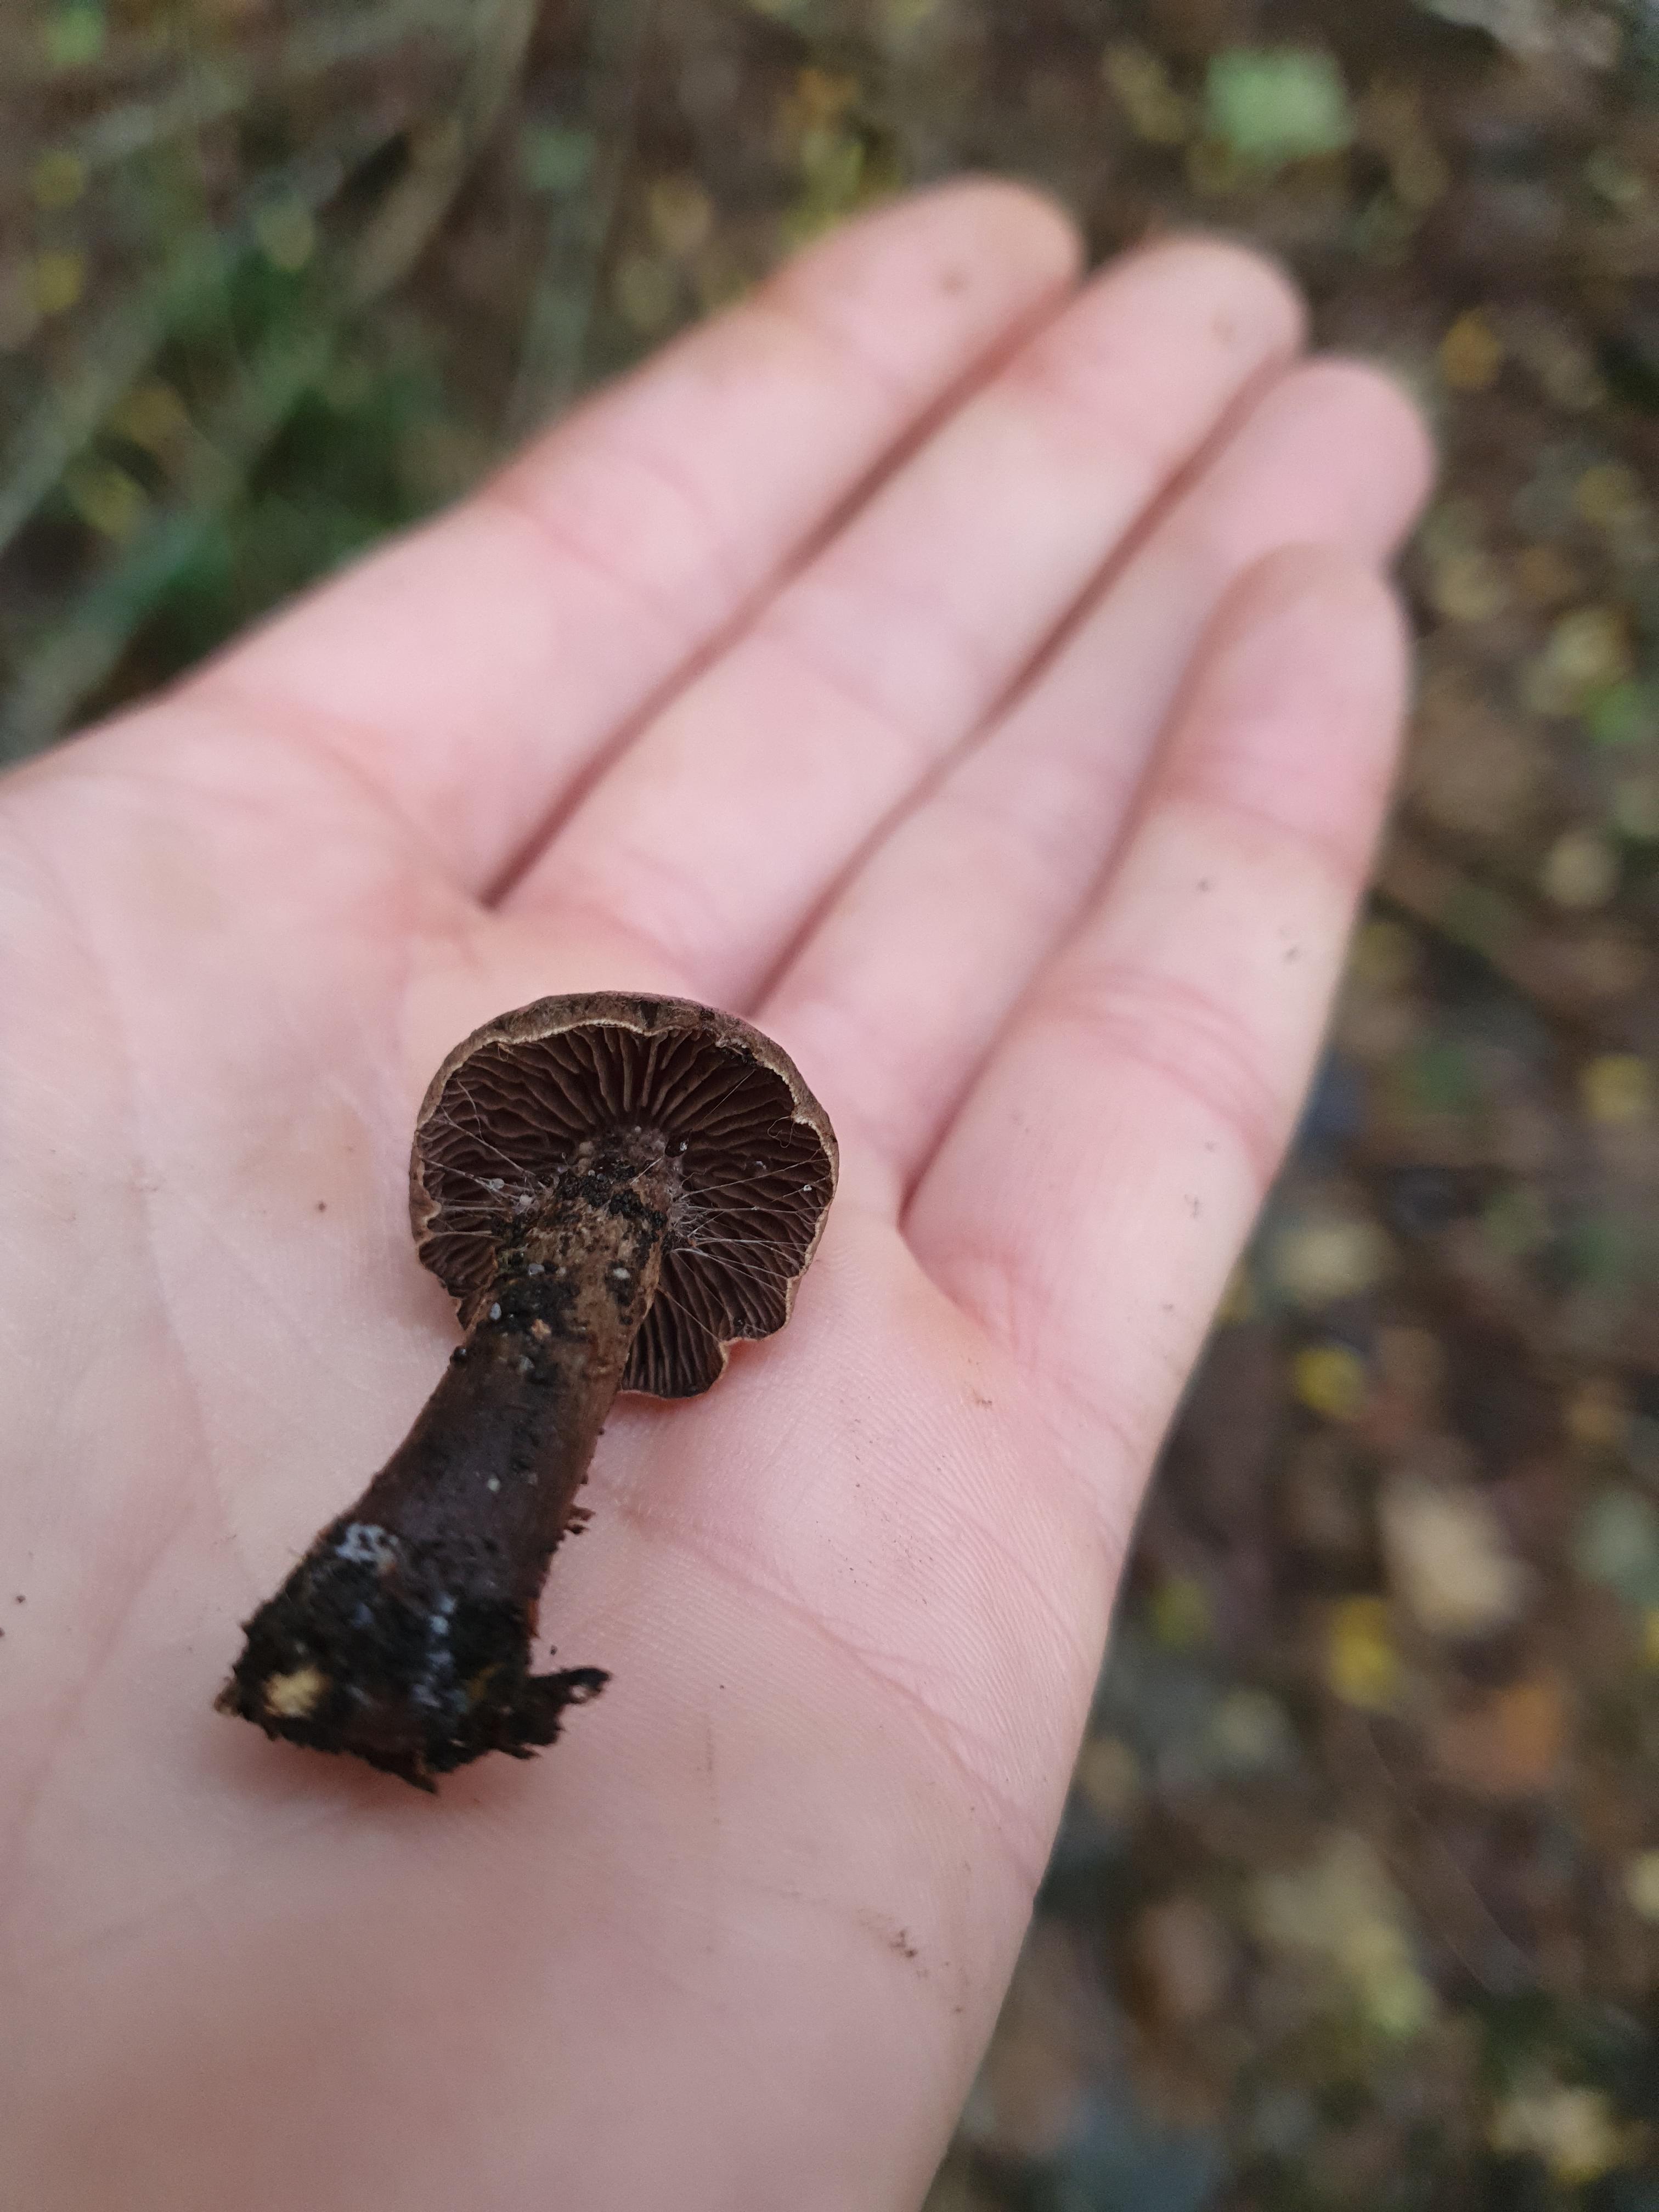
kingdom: Fungi
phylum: Basidiomycota
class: Agaricomycetes
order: Agaricales
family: Cortinariaceae
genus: Cortinarius
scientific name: Cortinarius
